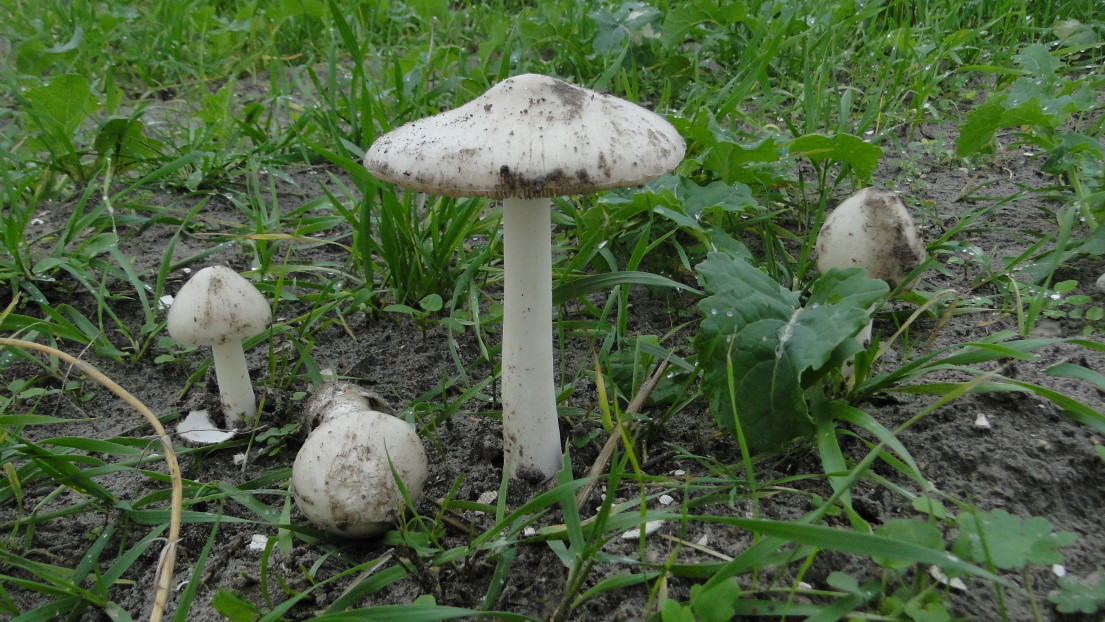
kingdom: Fungi
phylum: Basidiomycota
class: Agaricomycetes
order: Agaricales
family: Pluteaceae
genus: Volvopluteus
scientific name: Volvopluteus gloiocephalus
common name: høj posesvamp
